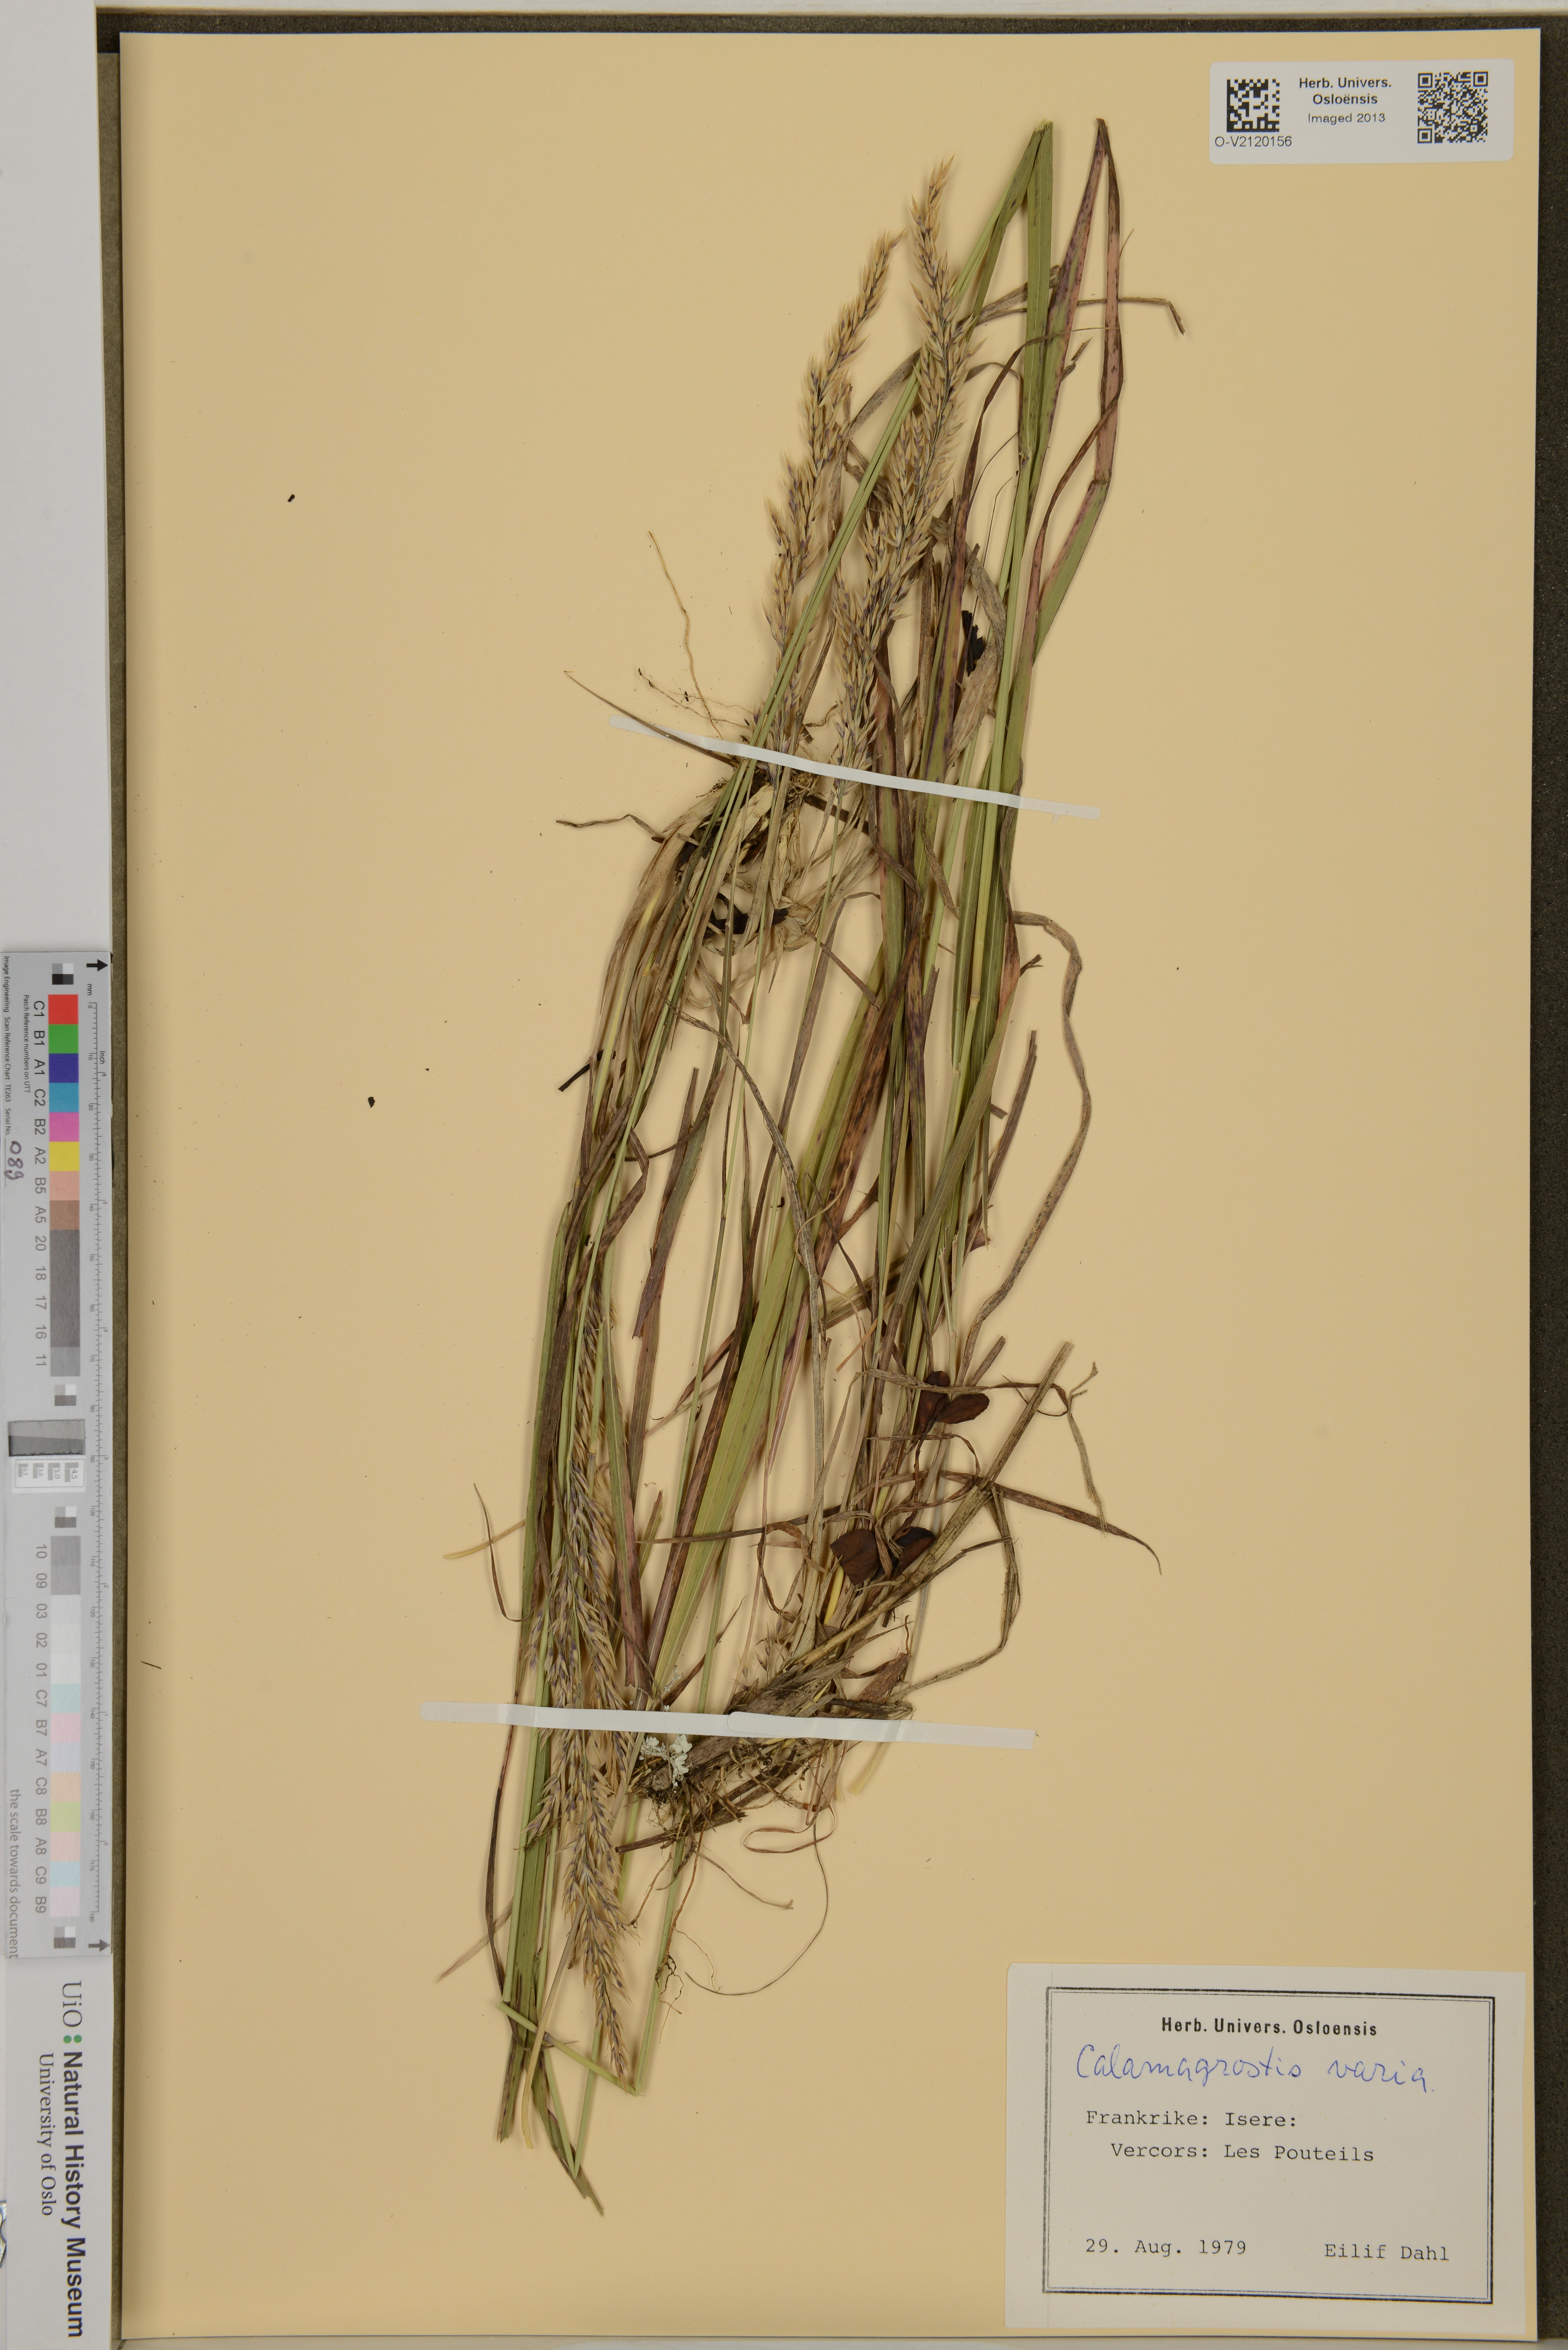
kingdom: Plantae
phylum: Tracheophyta
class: Liliopsida
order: Poales
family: Poaceae
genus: Calamagrostis
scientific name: Calamagrostis varia
